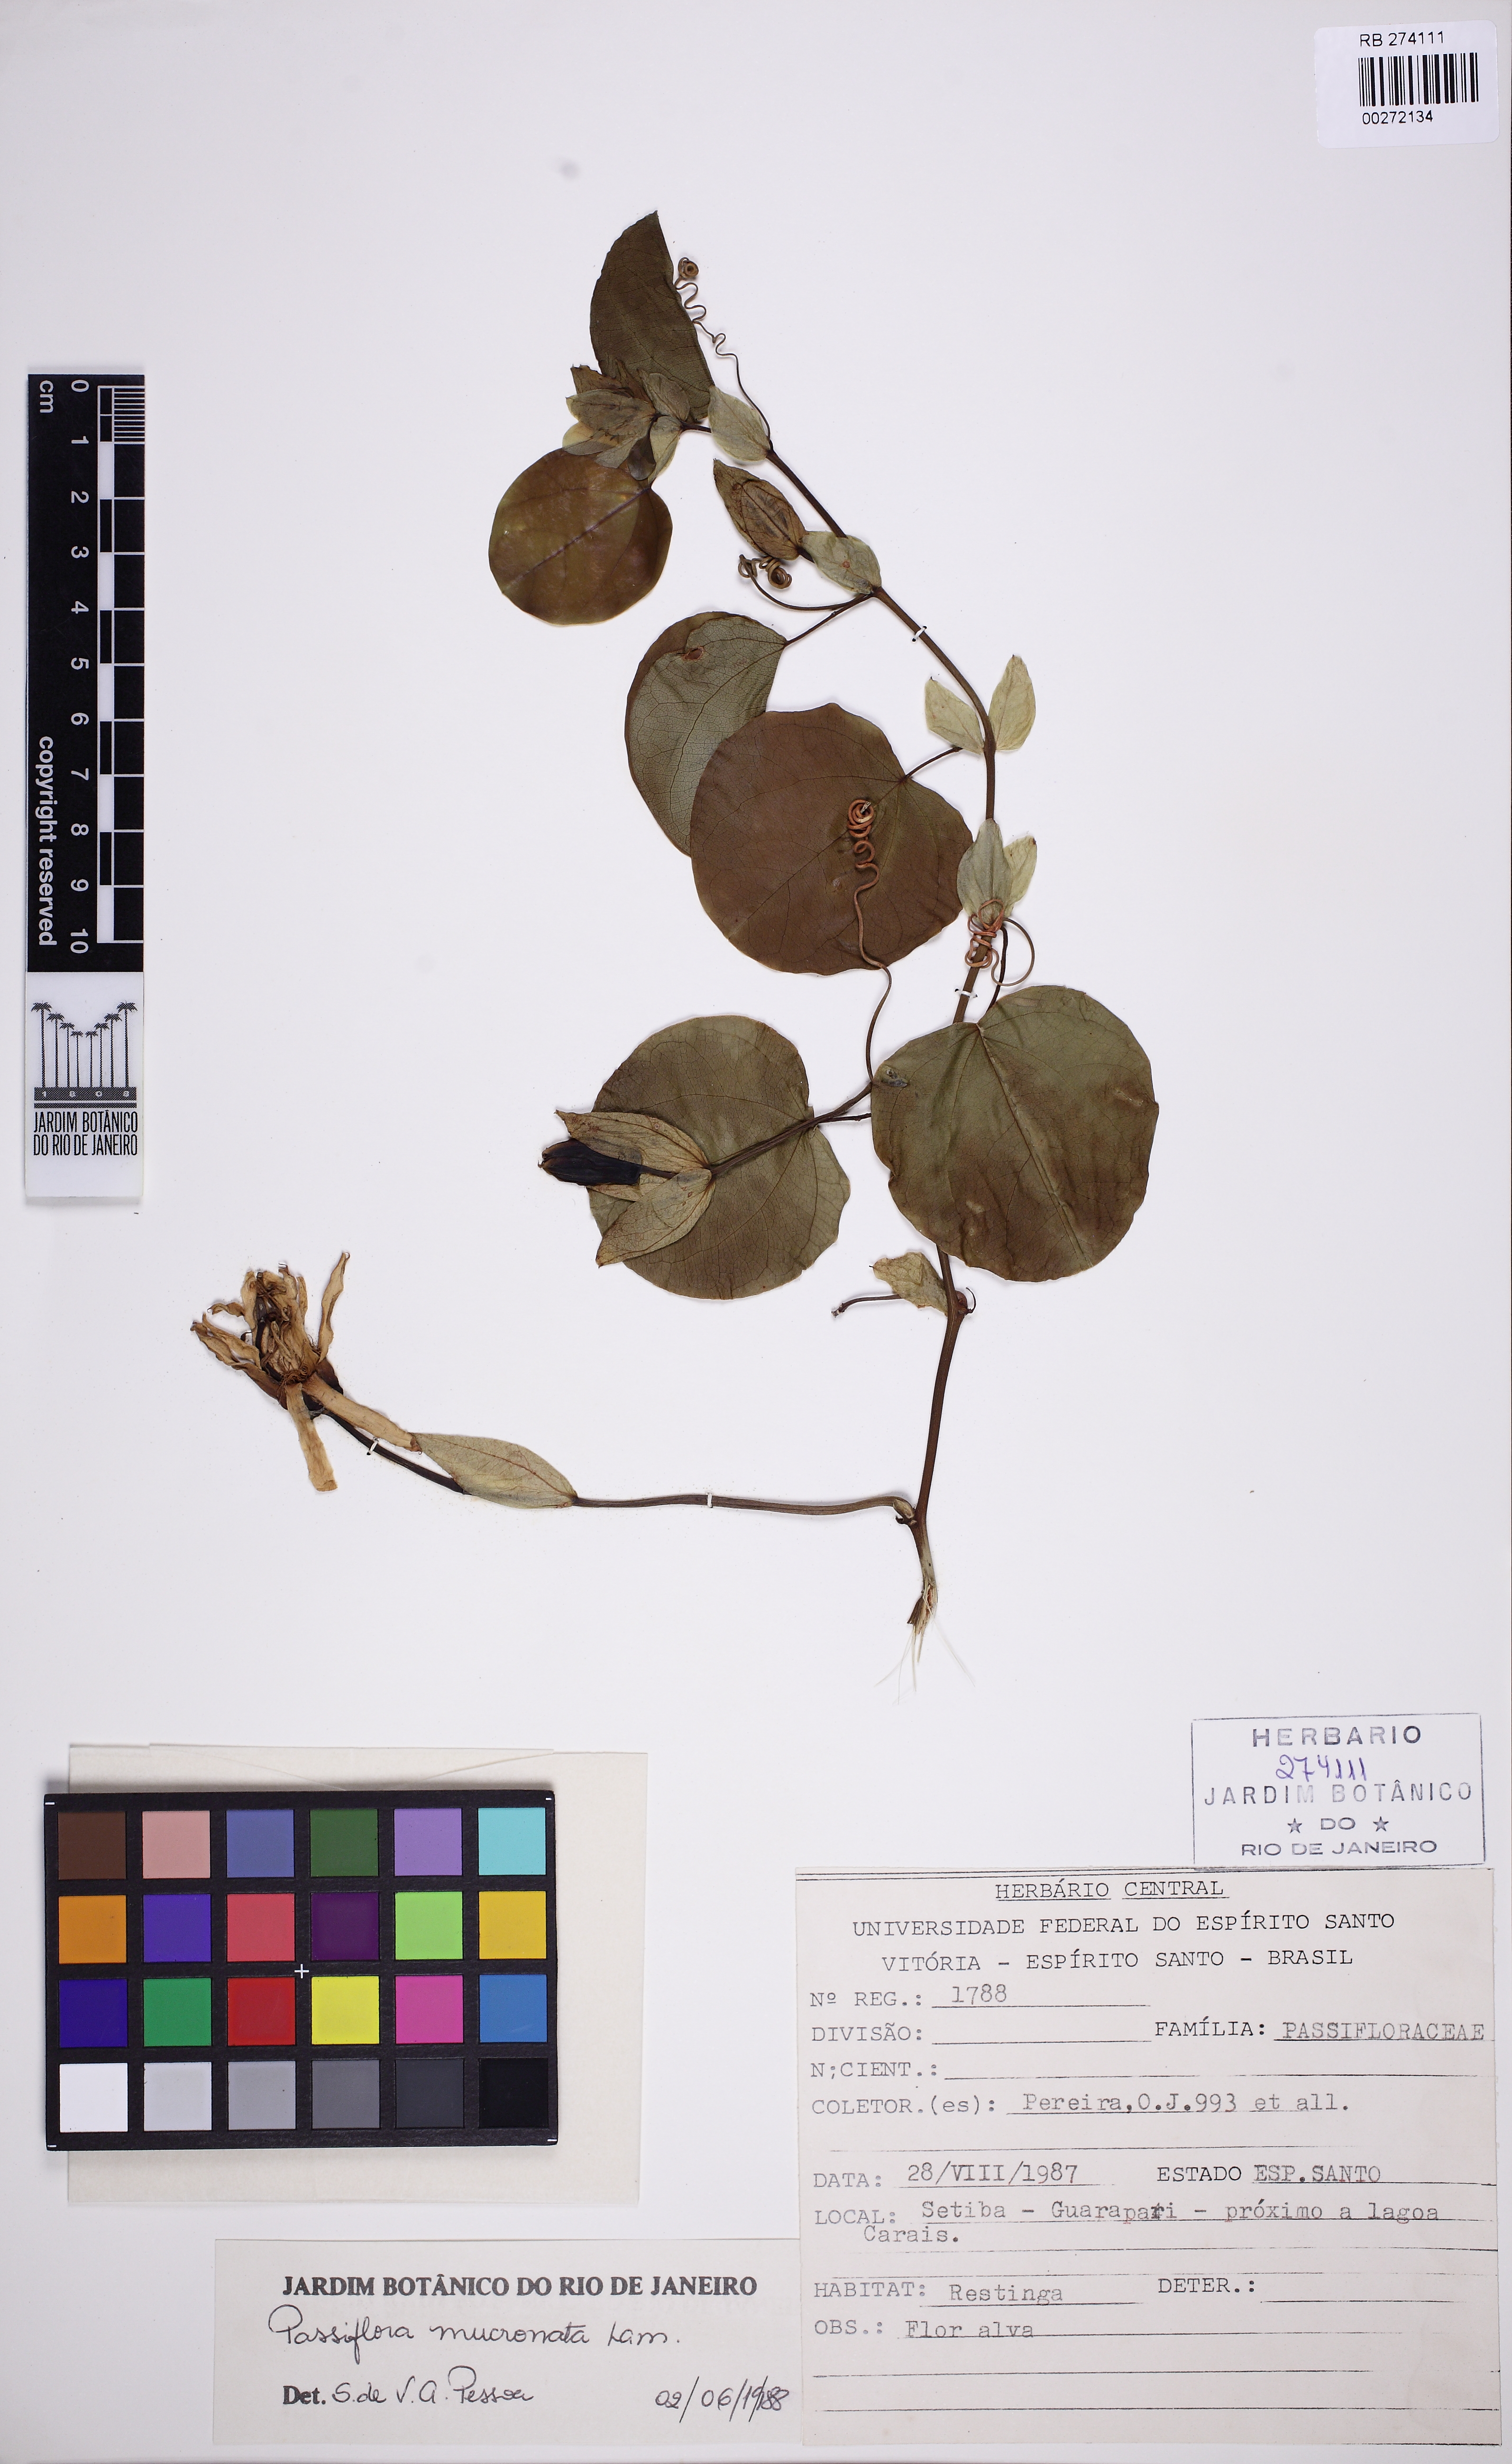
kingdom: Plantae
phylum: Tracheophyta
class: Magnoliopsida
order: Malpighiales
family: Passifloraceae
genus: Passiflora
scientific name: Passiflora mucronata
